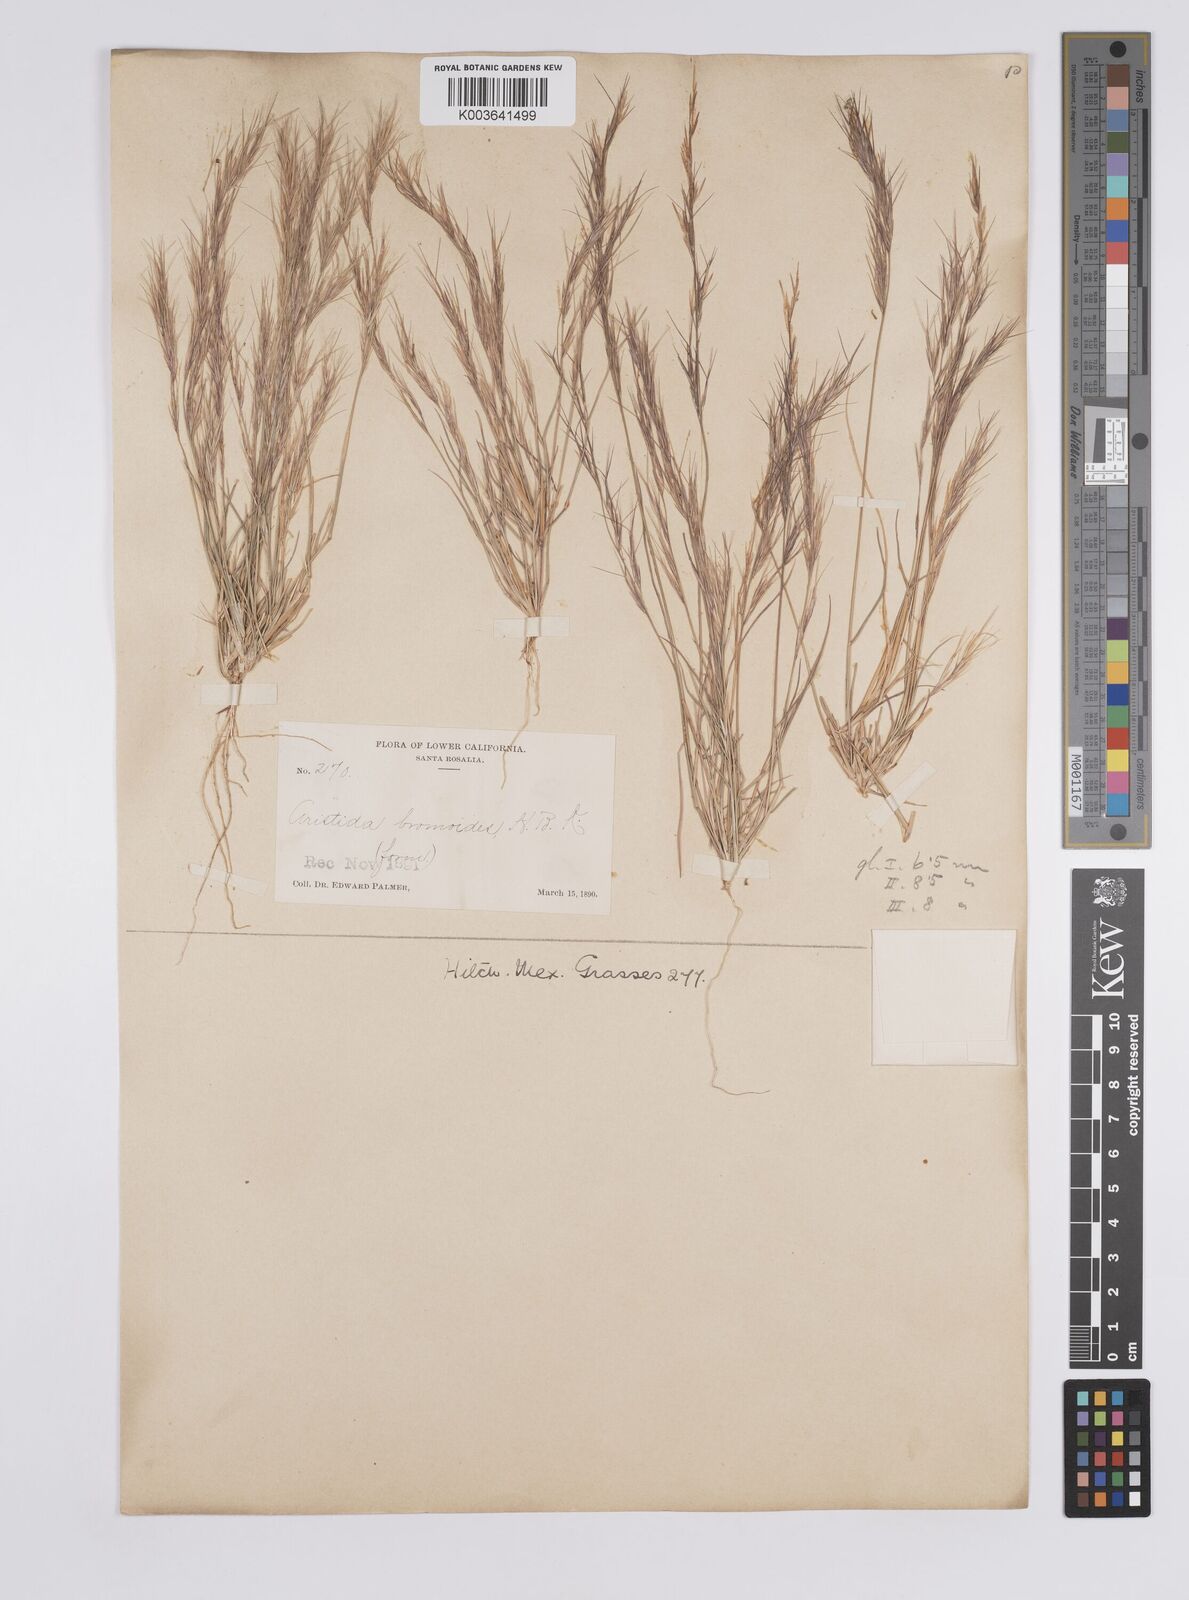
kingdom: Plantae
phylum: Tracheophyta
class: Liliopsida
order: Poales
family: Poaceae
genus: Aristida
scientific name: Aristida adscensionis
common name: Sixweeks threeawn
